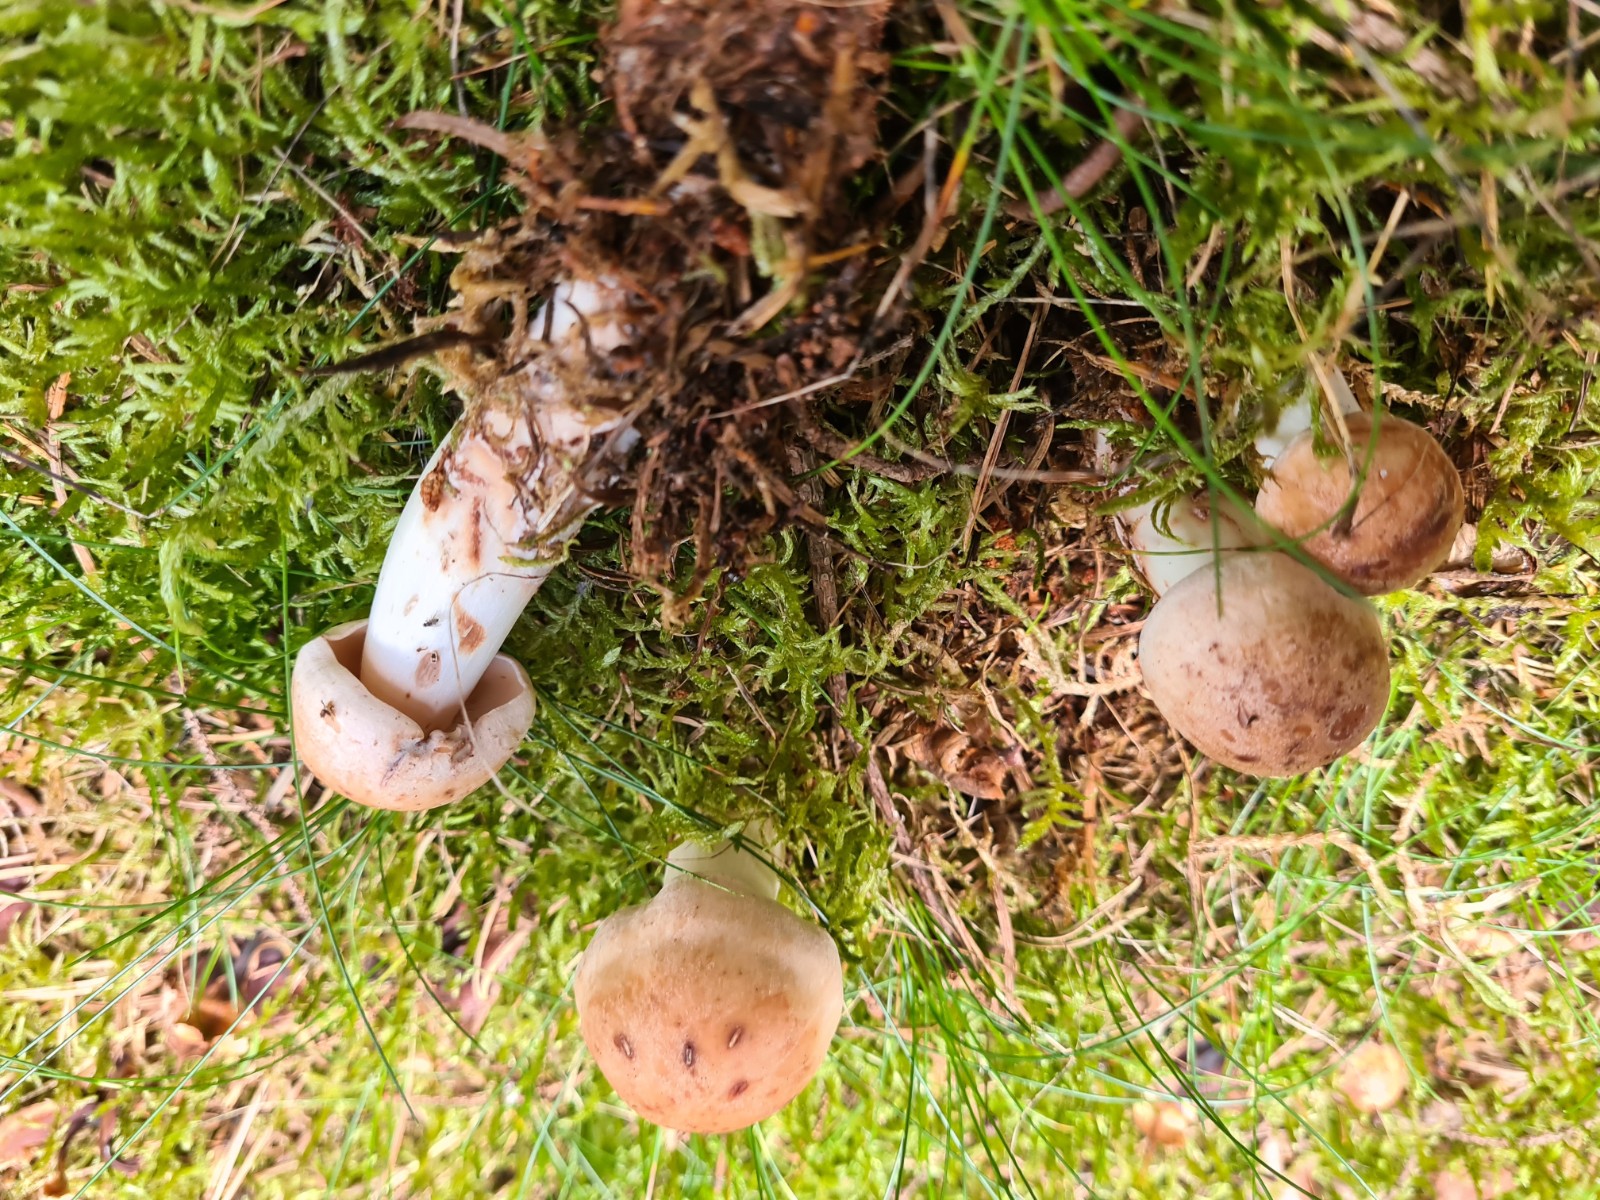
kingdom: Fungi
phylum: Basidiomycota
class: Agaricomycetes
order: Agaricales
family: Omphalotaceae
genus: Rhodocollybia
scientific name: Rhodocollybia maculata
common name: plettet fladhat
